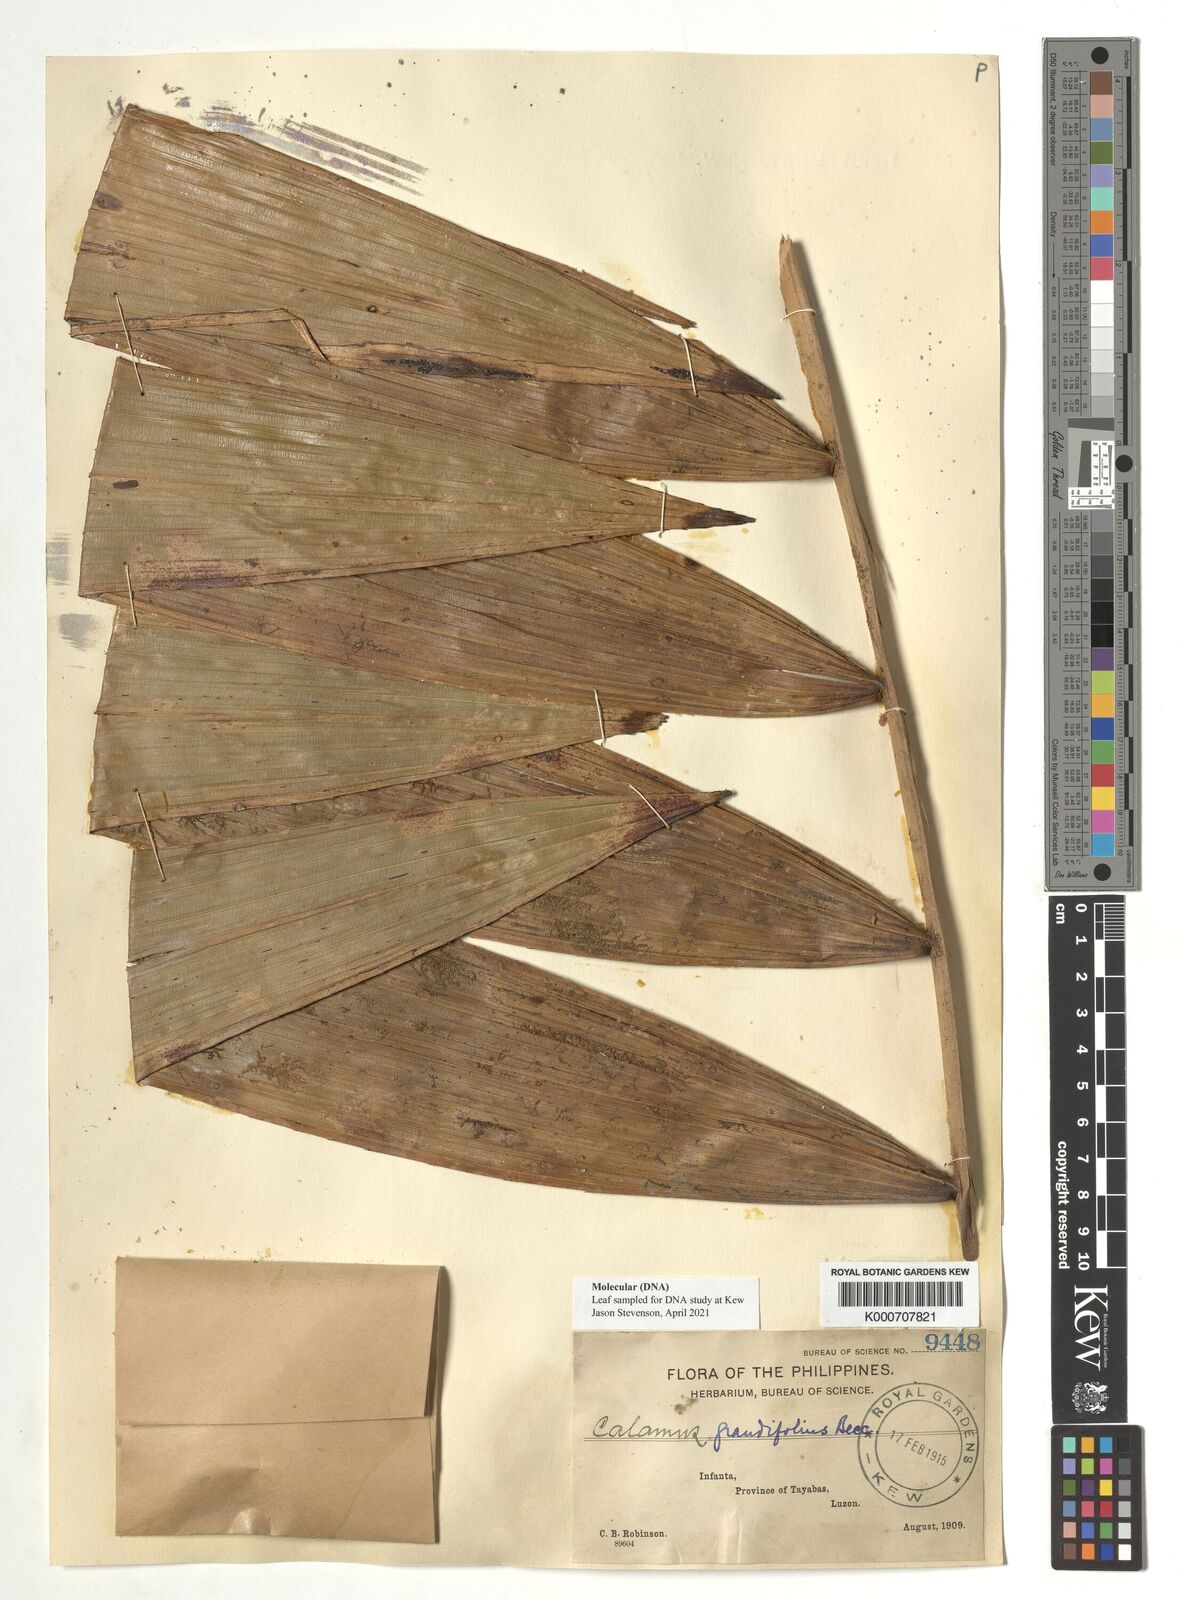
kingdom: Plantae
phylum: Tracheophyta
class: Liliopsida
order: Arecales
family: Arecaceae
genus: Calamus
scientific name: Calamus moseleyanus
